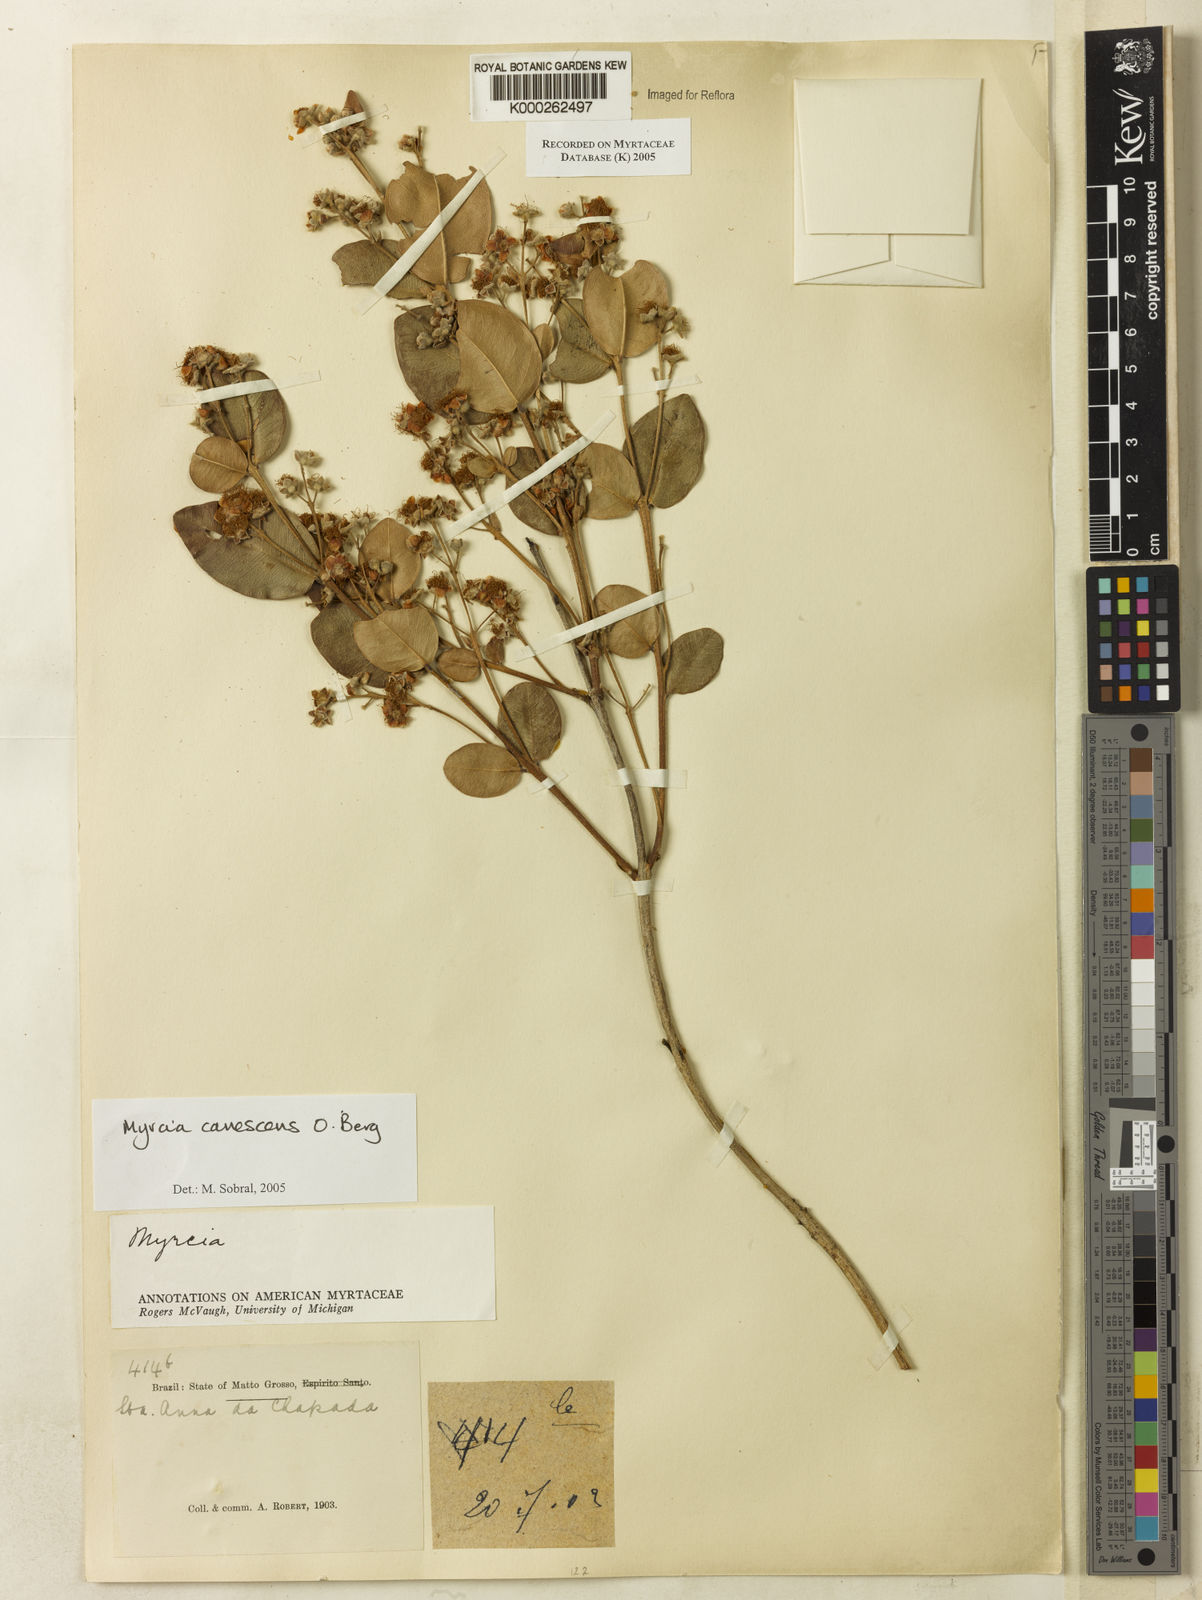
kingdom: Plantae
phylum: Tracheophyta
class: Magnoliopsida
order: Myrtales
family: Myrtaceae
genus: Myrcia
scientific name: Myrcia canescens
